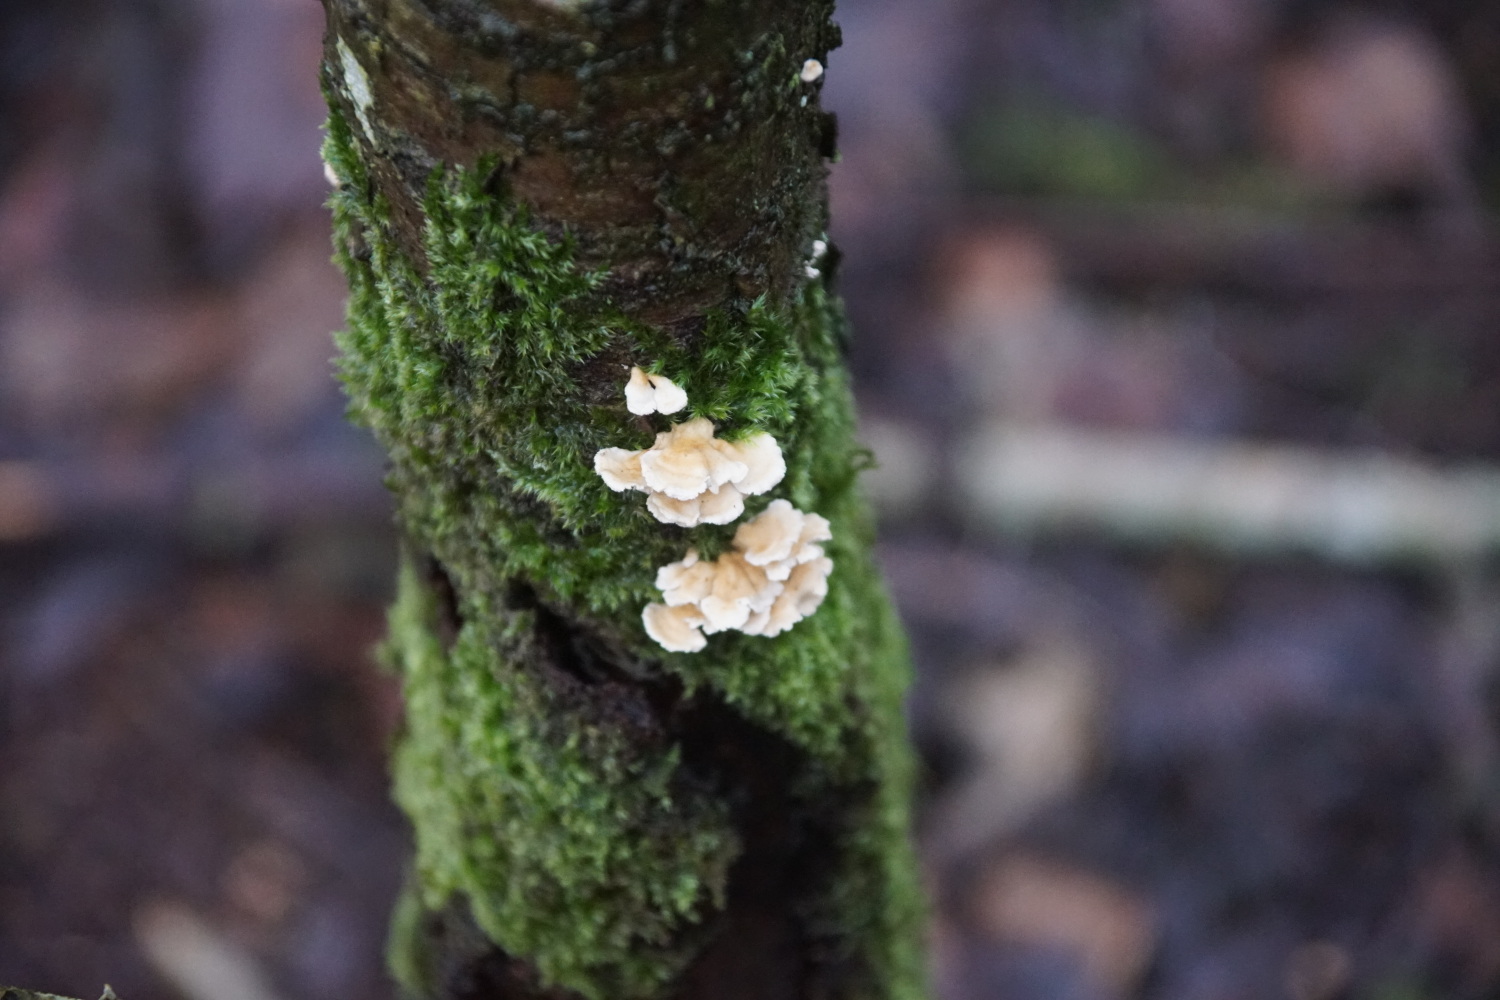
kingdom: Fungi
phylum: Basidiomycota
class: Agaricomycetes
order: Amylocorticiales
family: Amylocorticiaceae
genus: Plicaturopsis
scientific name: Plicaturopsis crispa
